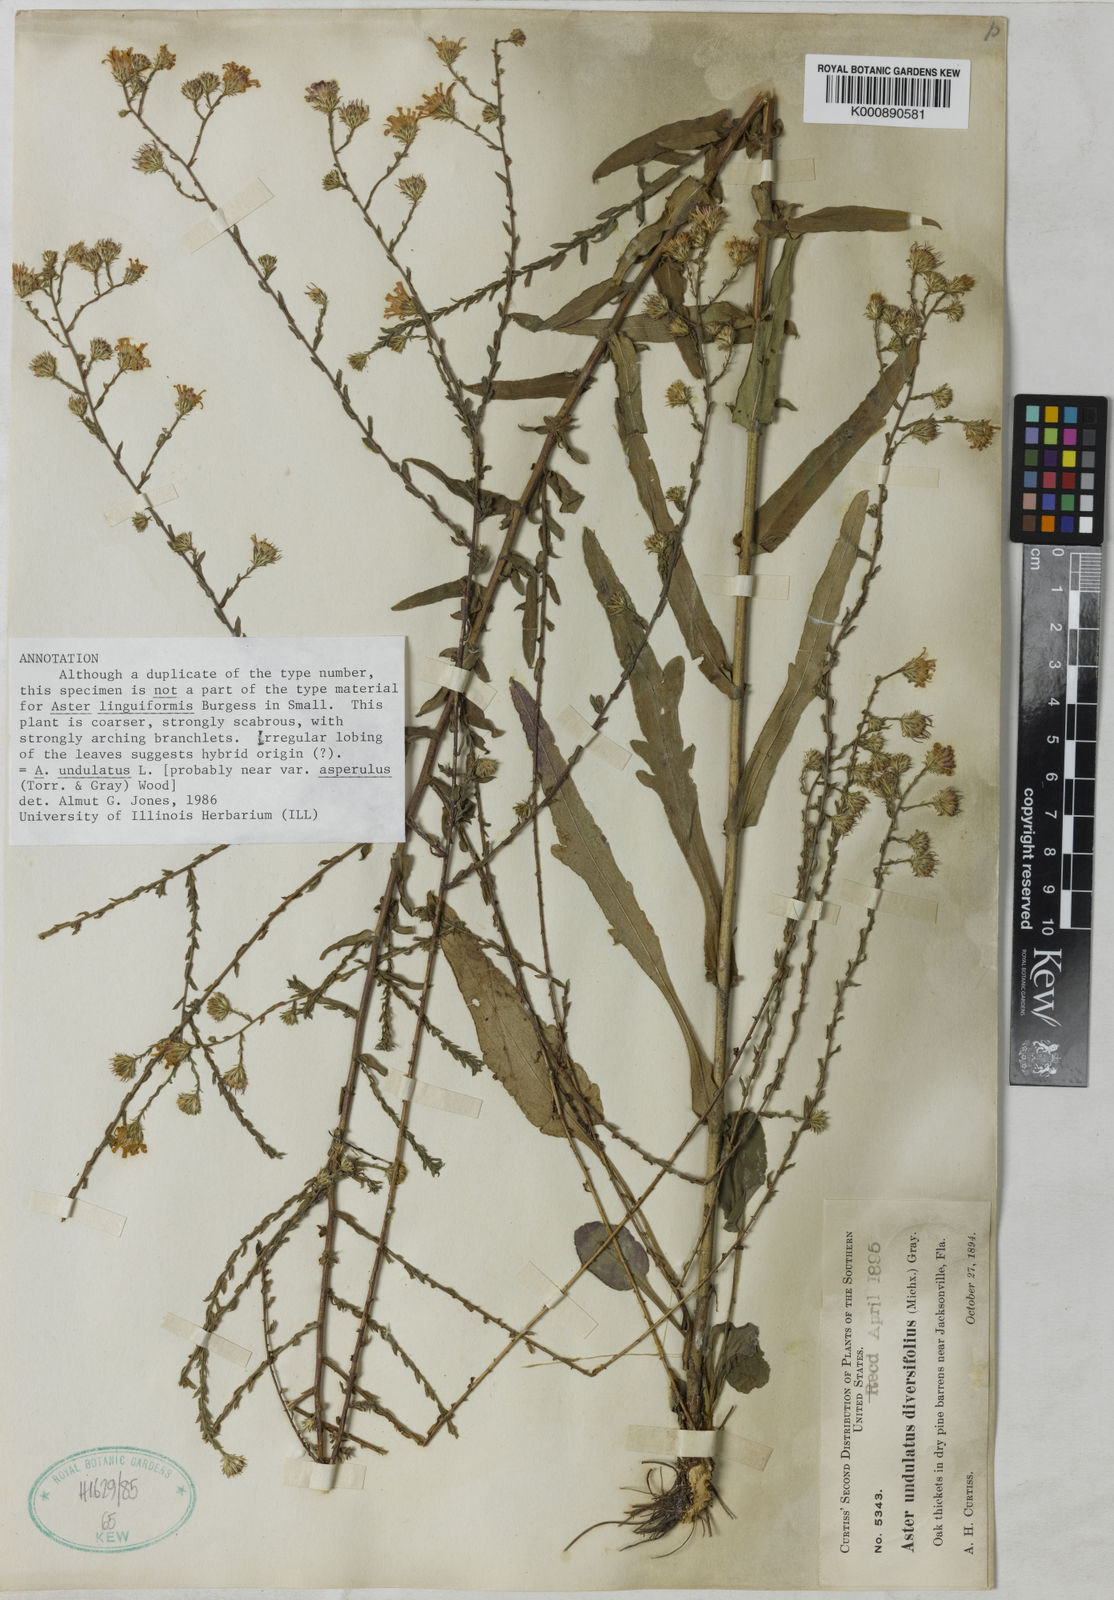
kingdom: Plantae
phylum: Tracheophyta
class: Magnoliopsida
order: Asterales
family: Asteraceae
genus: Symphyotrichum
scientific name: Symphyotrichum undulatum
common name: Clasping heart-leaf aster
